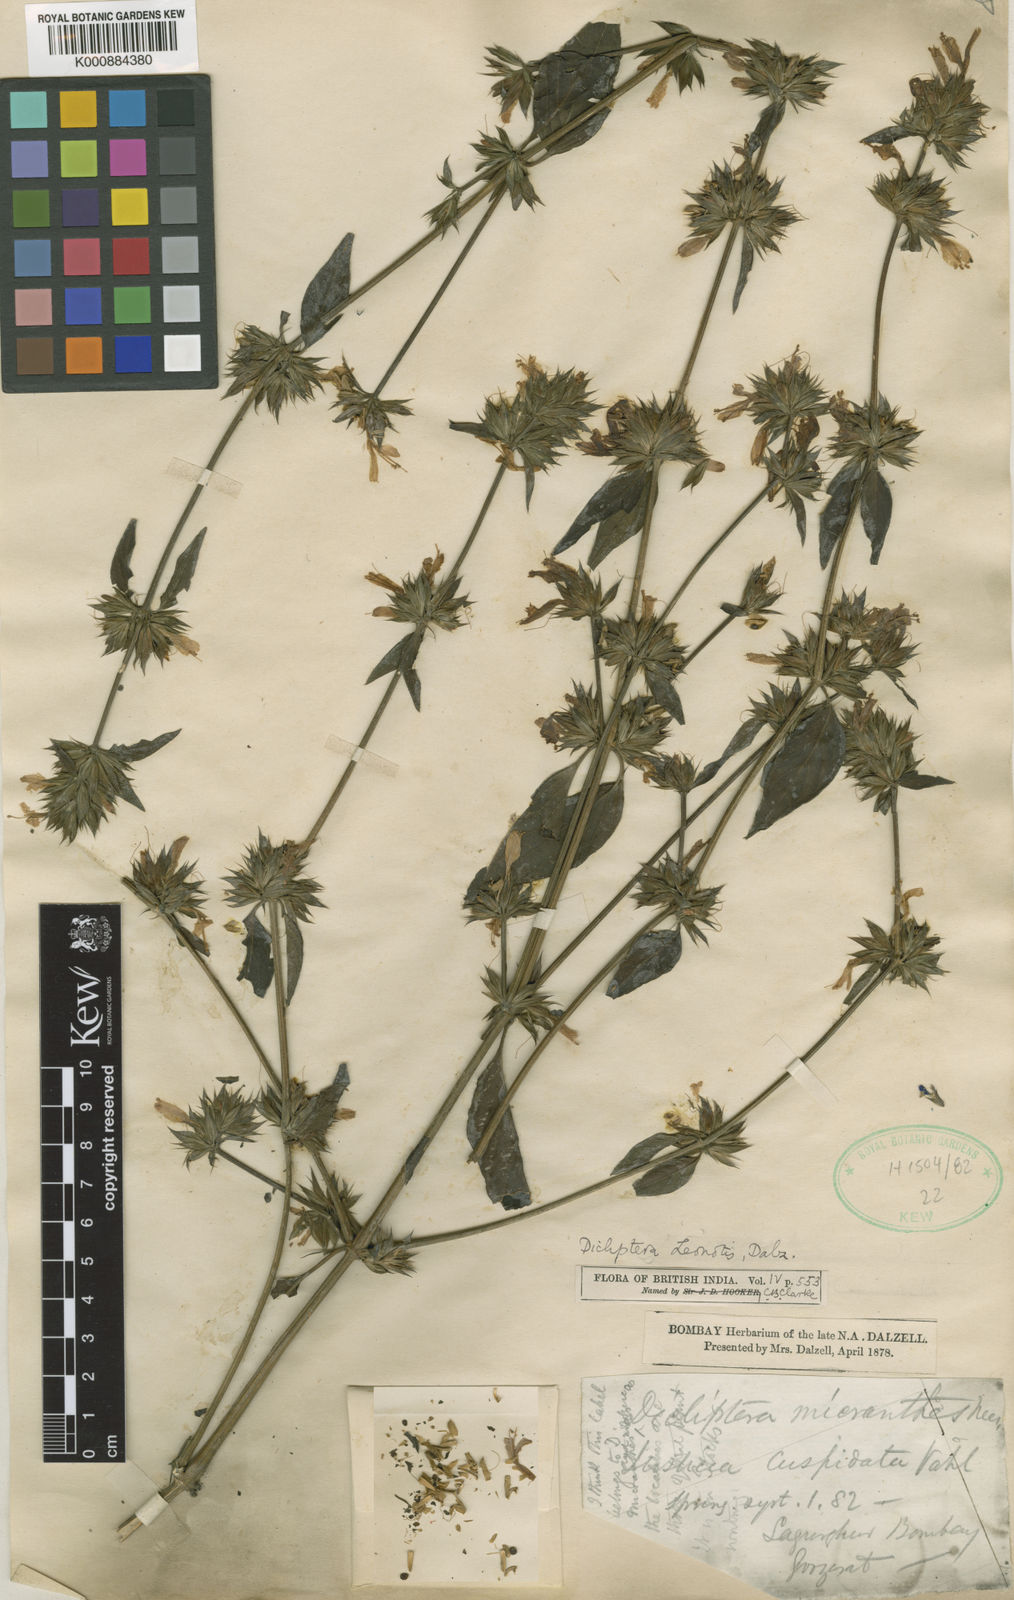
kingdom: Plantae
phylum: Tracheophyta
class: Magnoliopsida
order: Lamiales
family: Acanthaceae
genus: Dicliptera
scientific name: Dicliptera leonotis
